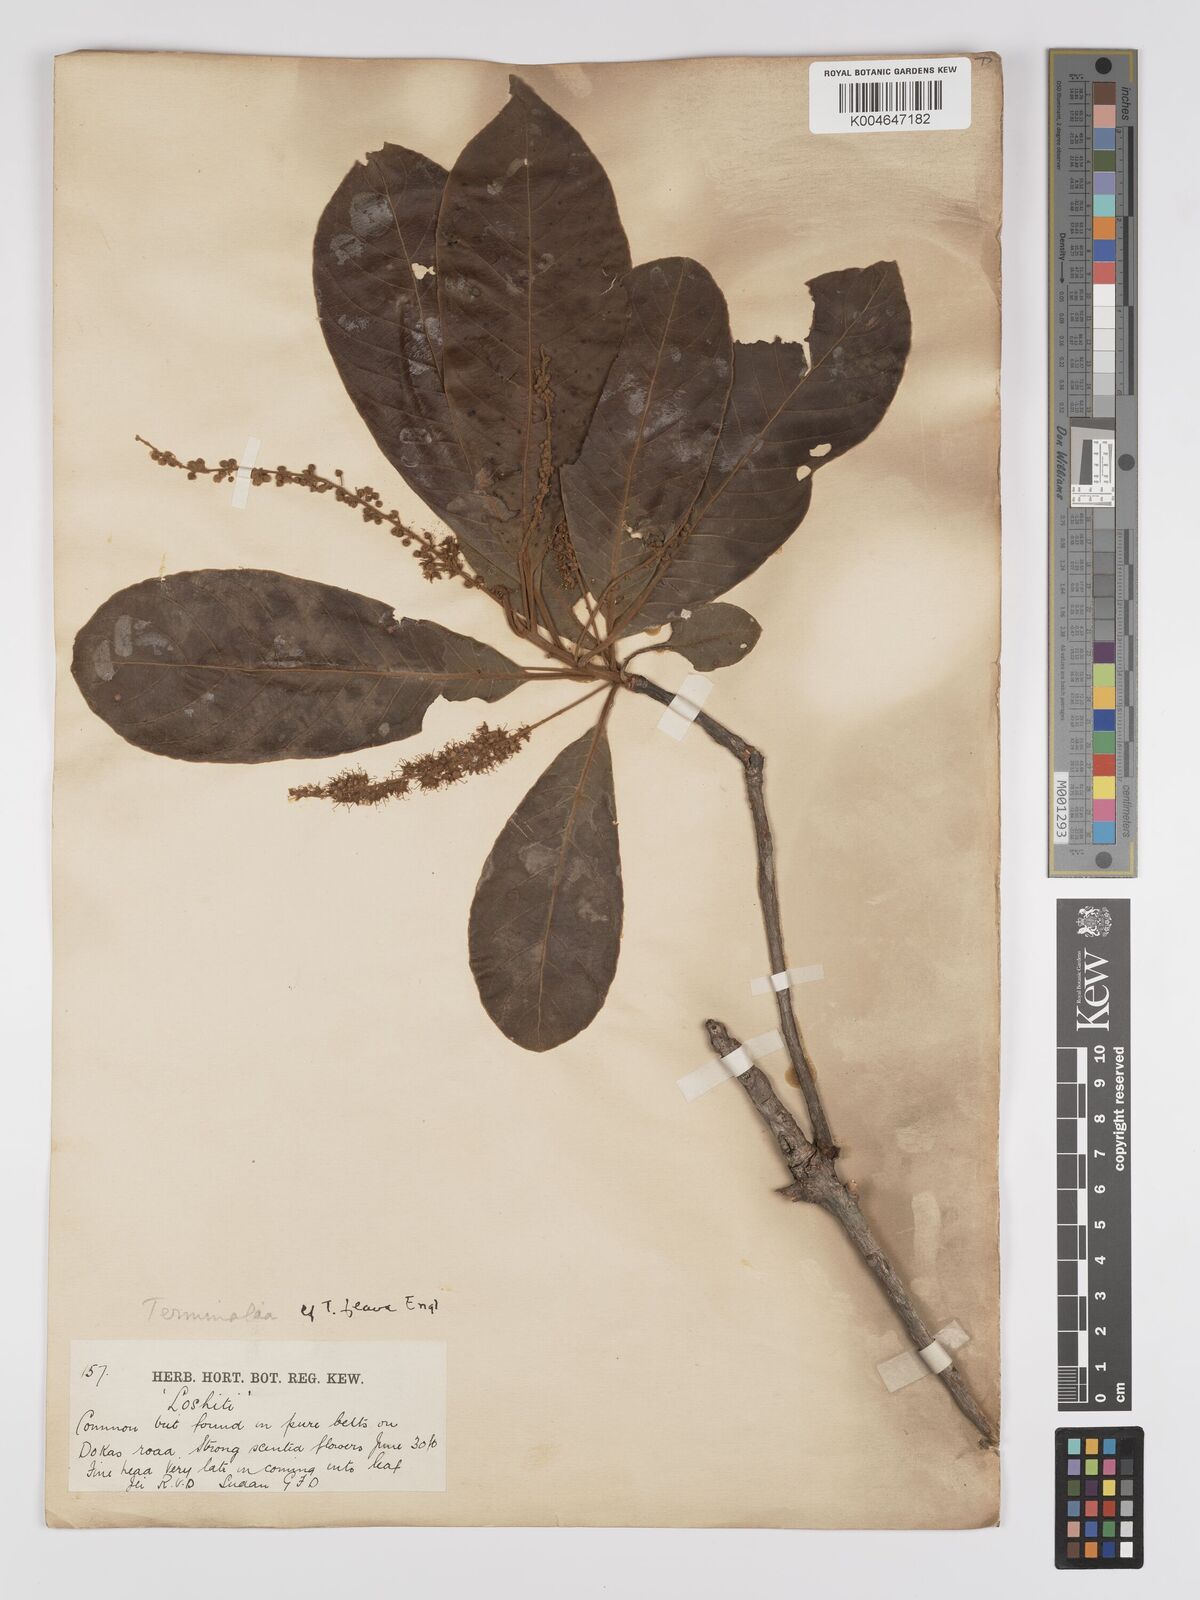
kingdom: Plantae
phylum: Tracheophyta
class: Magnoliopsida
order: Myrtales
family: Combretaceae
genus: Terminalia
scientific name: Terminalia schimperiana
